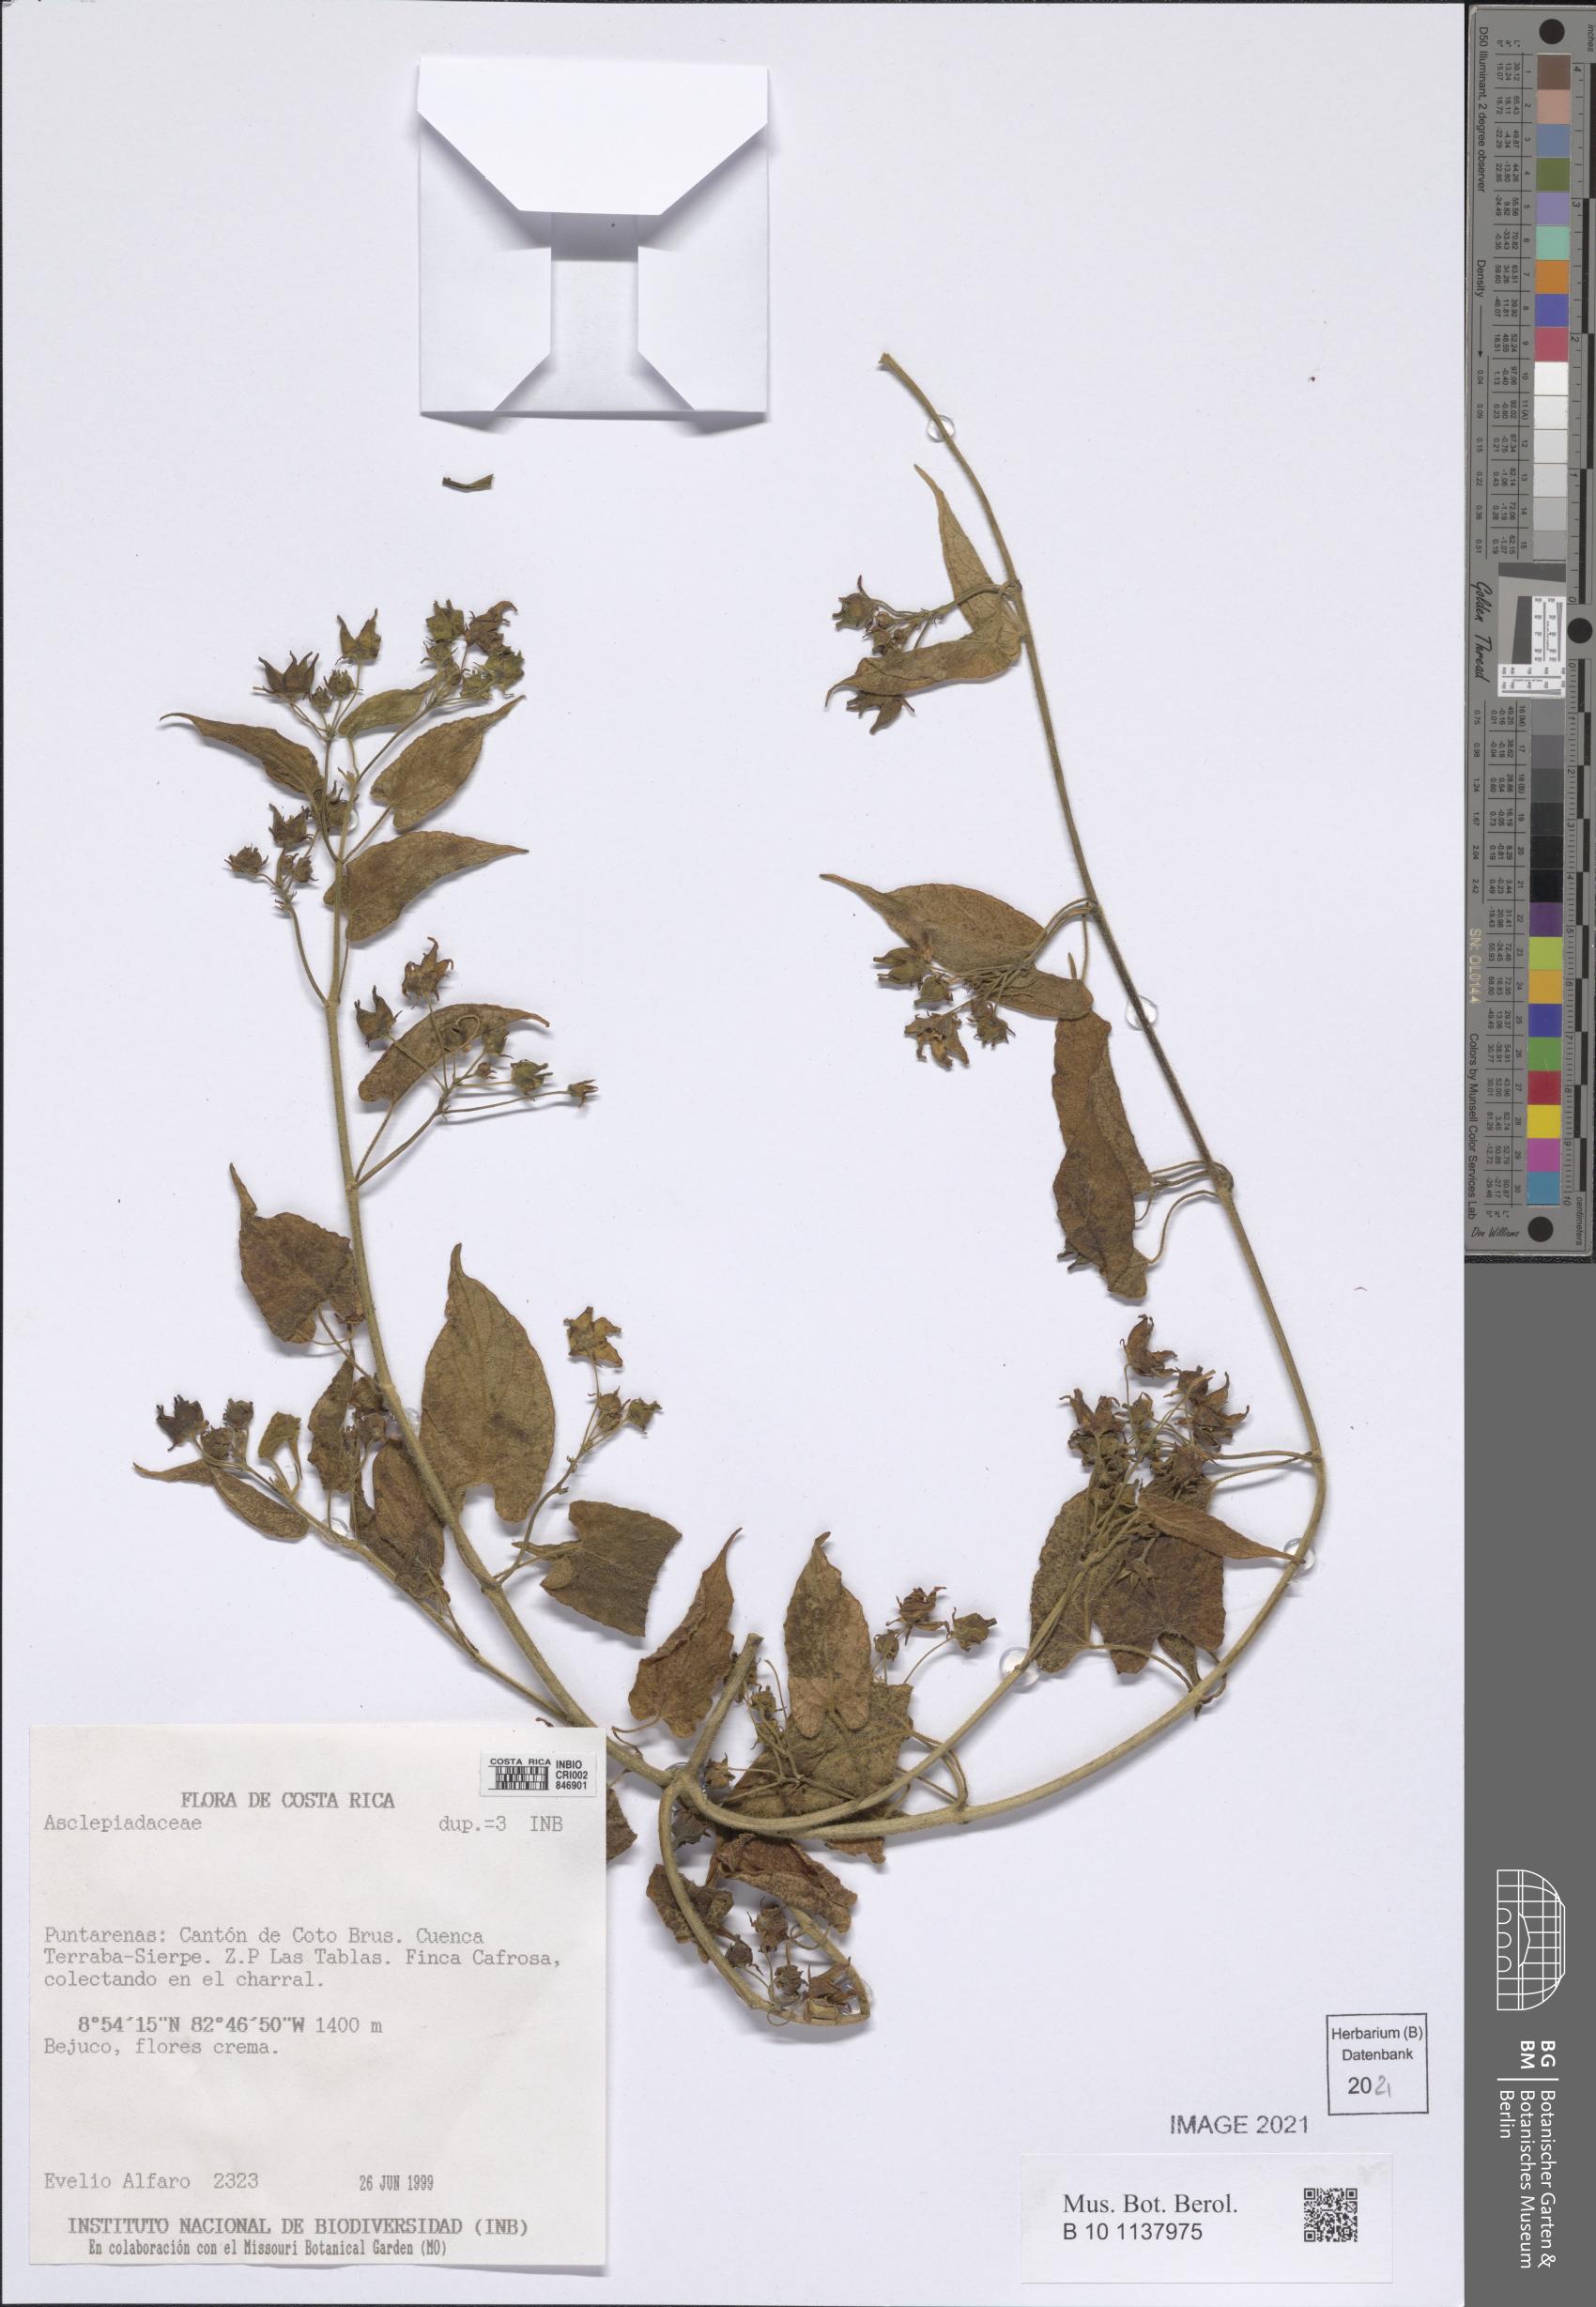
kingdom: Plantae
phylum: Tracheophyta
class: Magnoliopsida
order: Gentianales
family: Apocynaceae
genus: Gonolobus
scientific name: Gonolobus edulis
